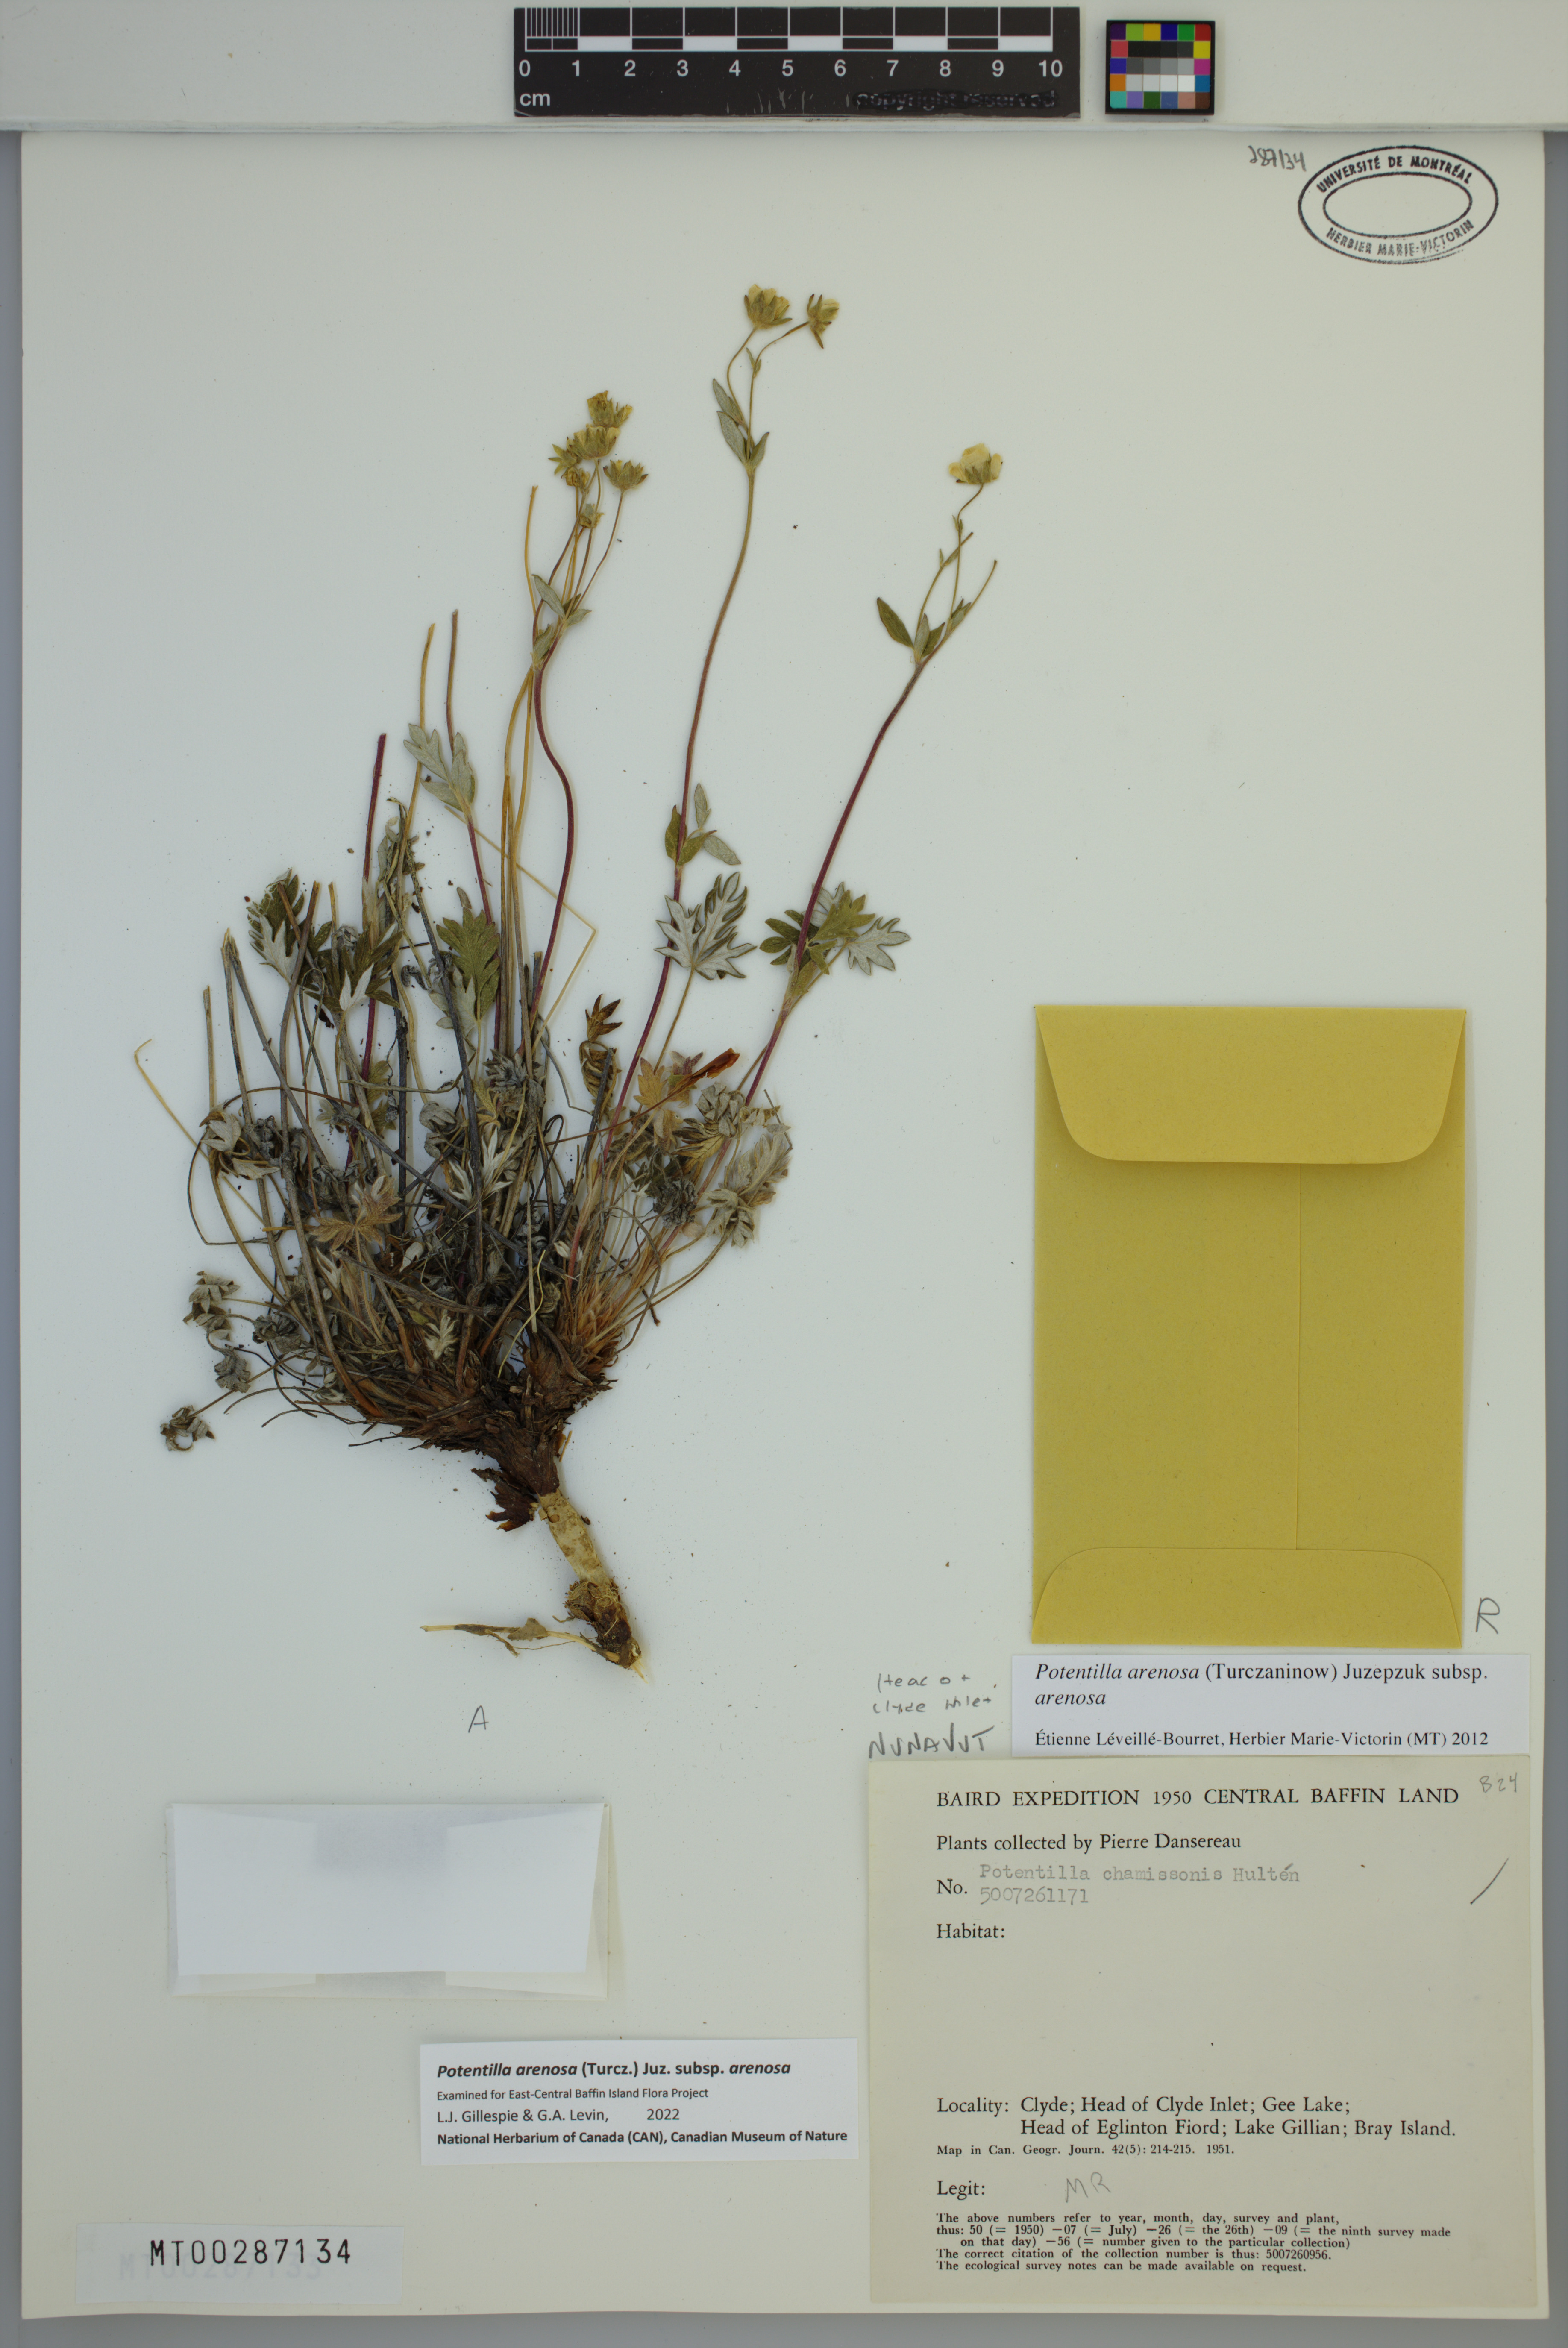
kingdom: Plantae
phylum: Tracheophyta
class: Magnoliopsida
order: Rosales
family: Rosaceae
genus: Potentilla
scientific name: Potentilla arenosa
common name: Bluff cinquefoil
